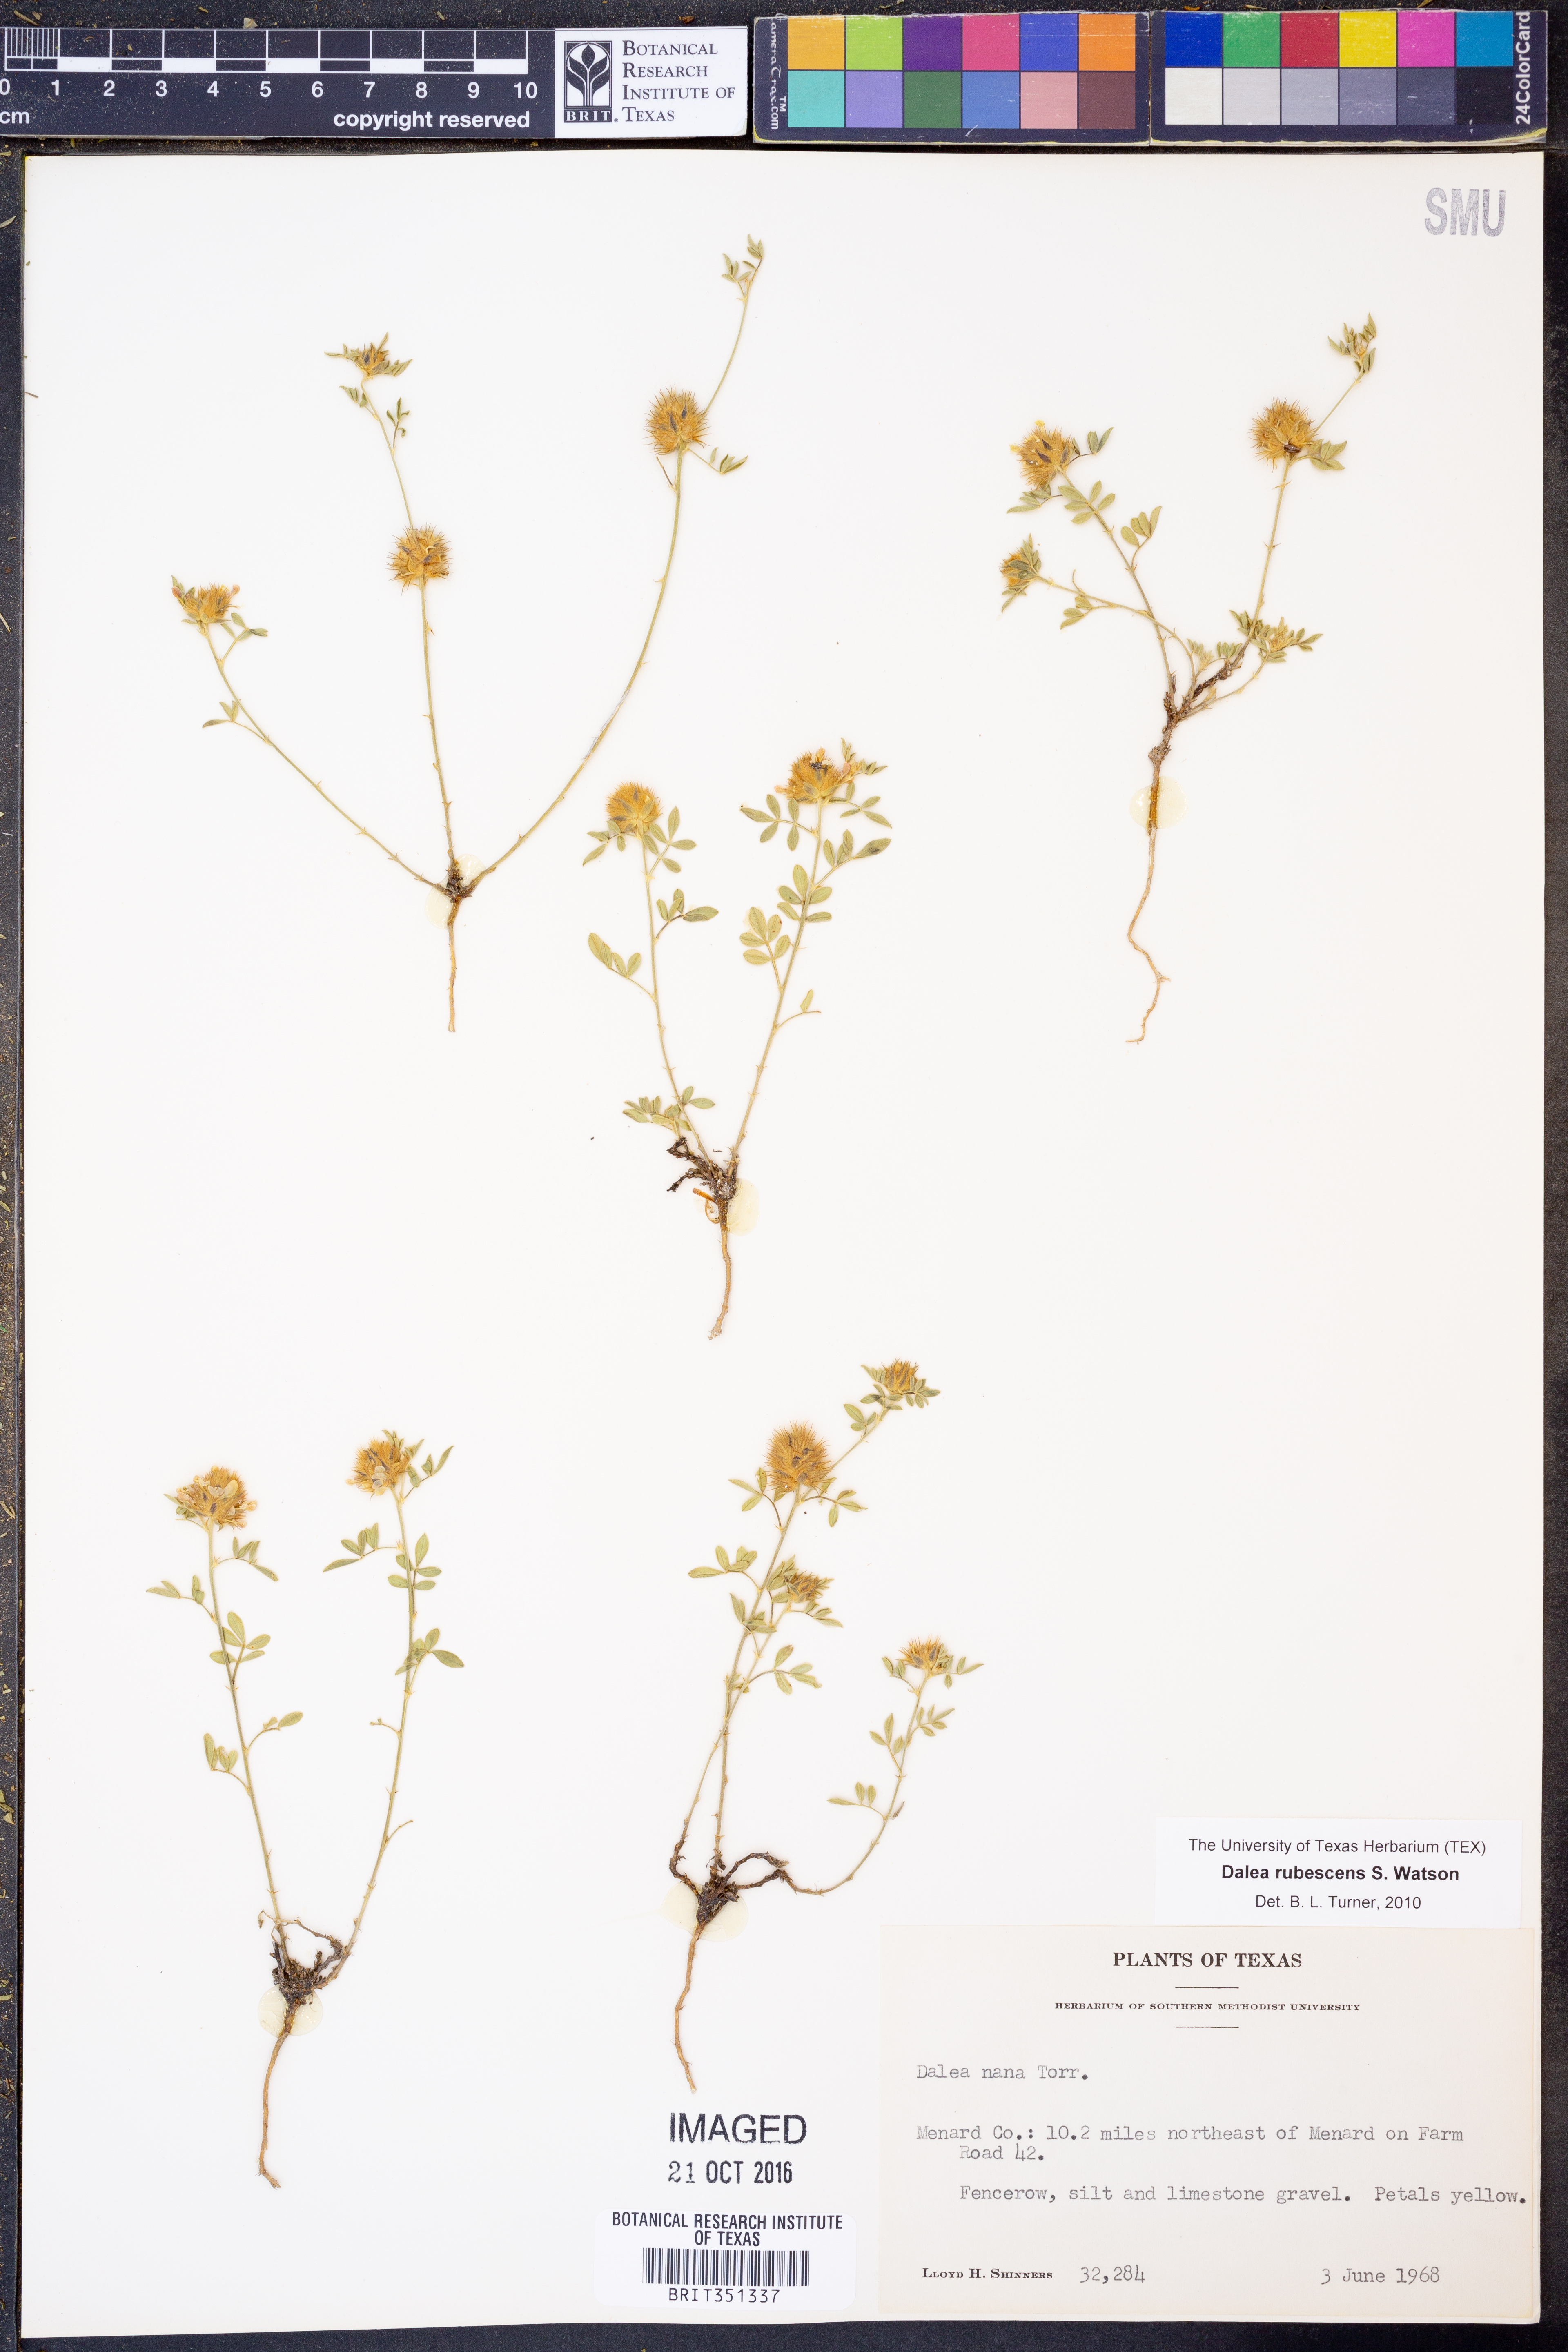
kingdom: Plantae
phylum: Tracheophyta
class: Magnoliopsida
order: Fabales
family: Fabaceae
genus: Dalea
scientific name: Dalea rubescens
